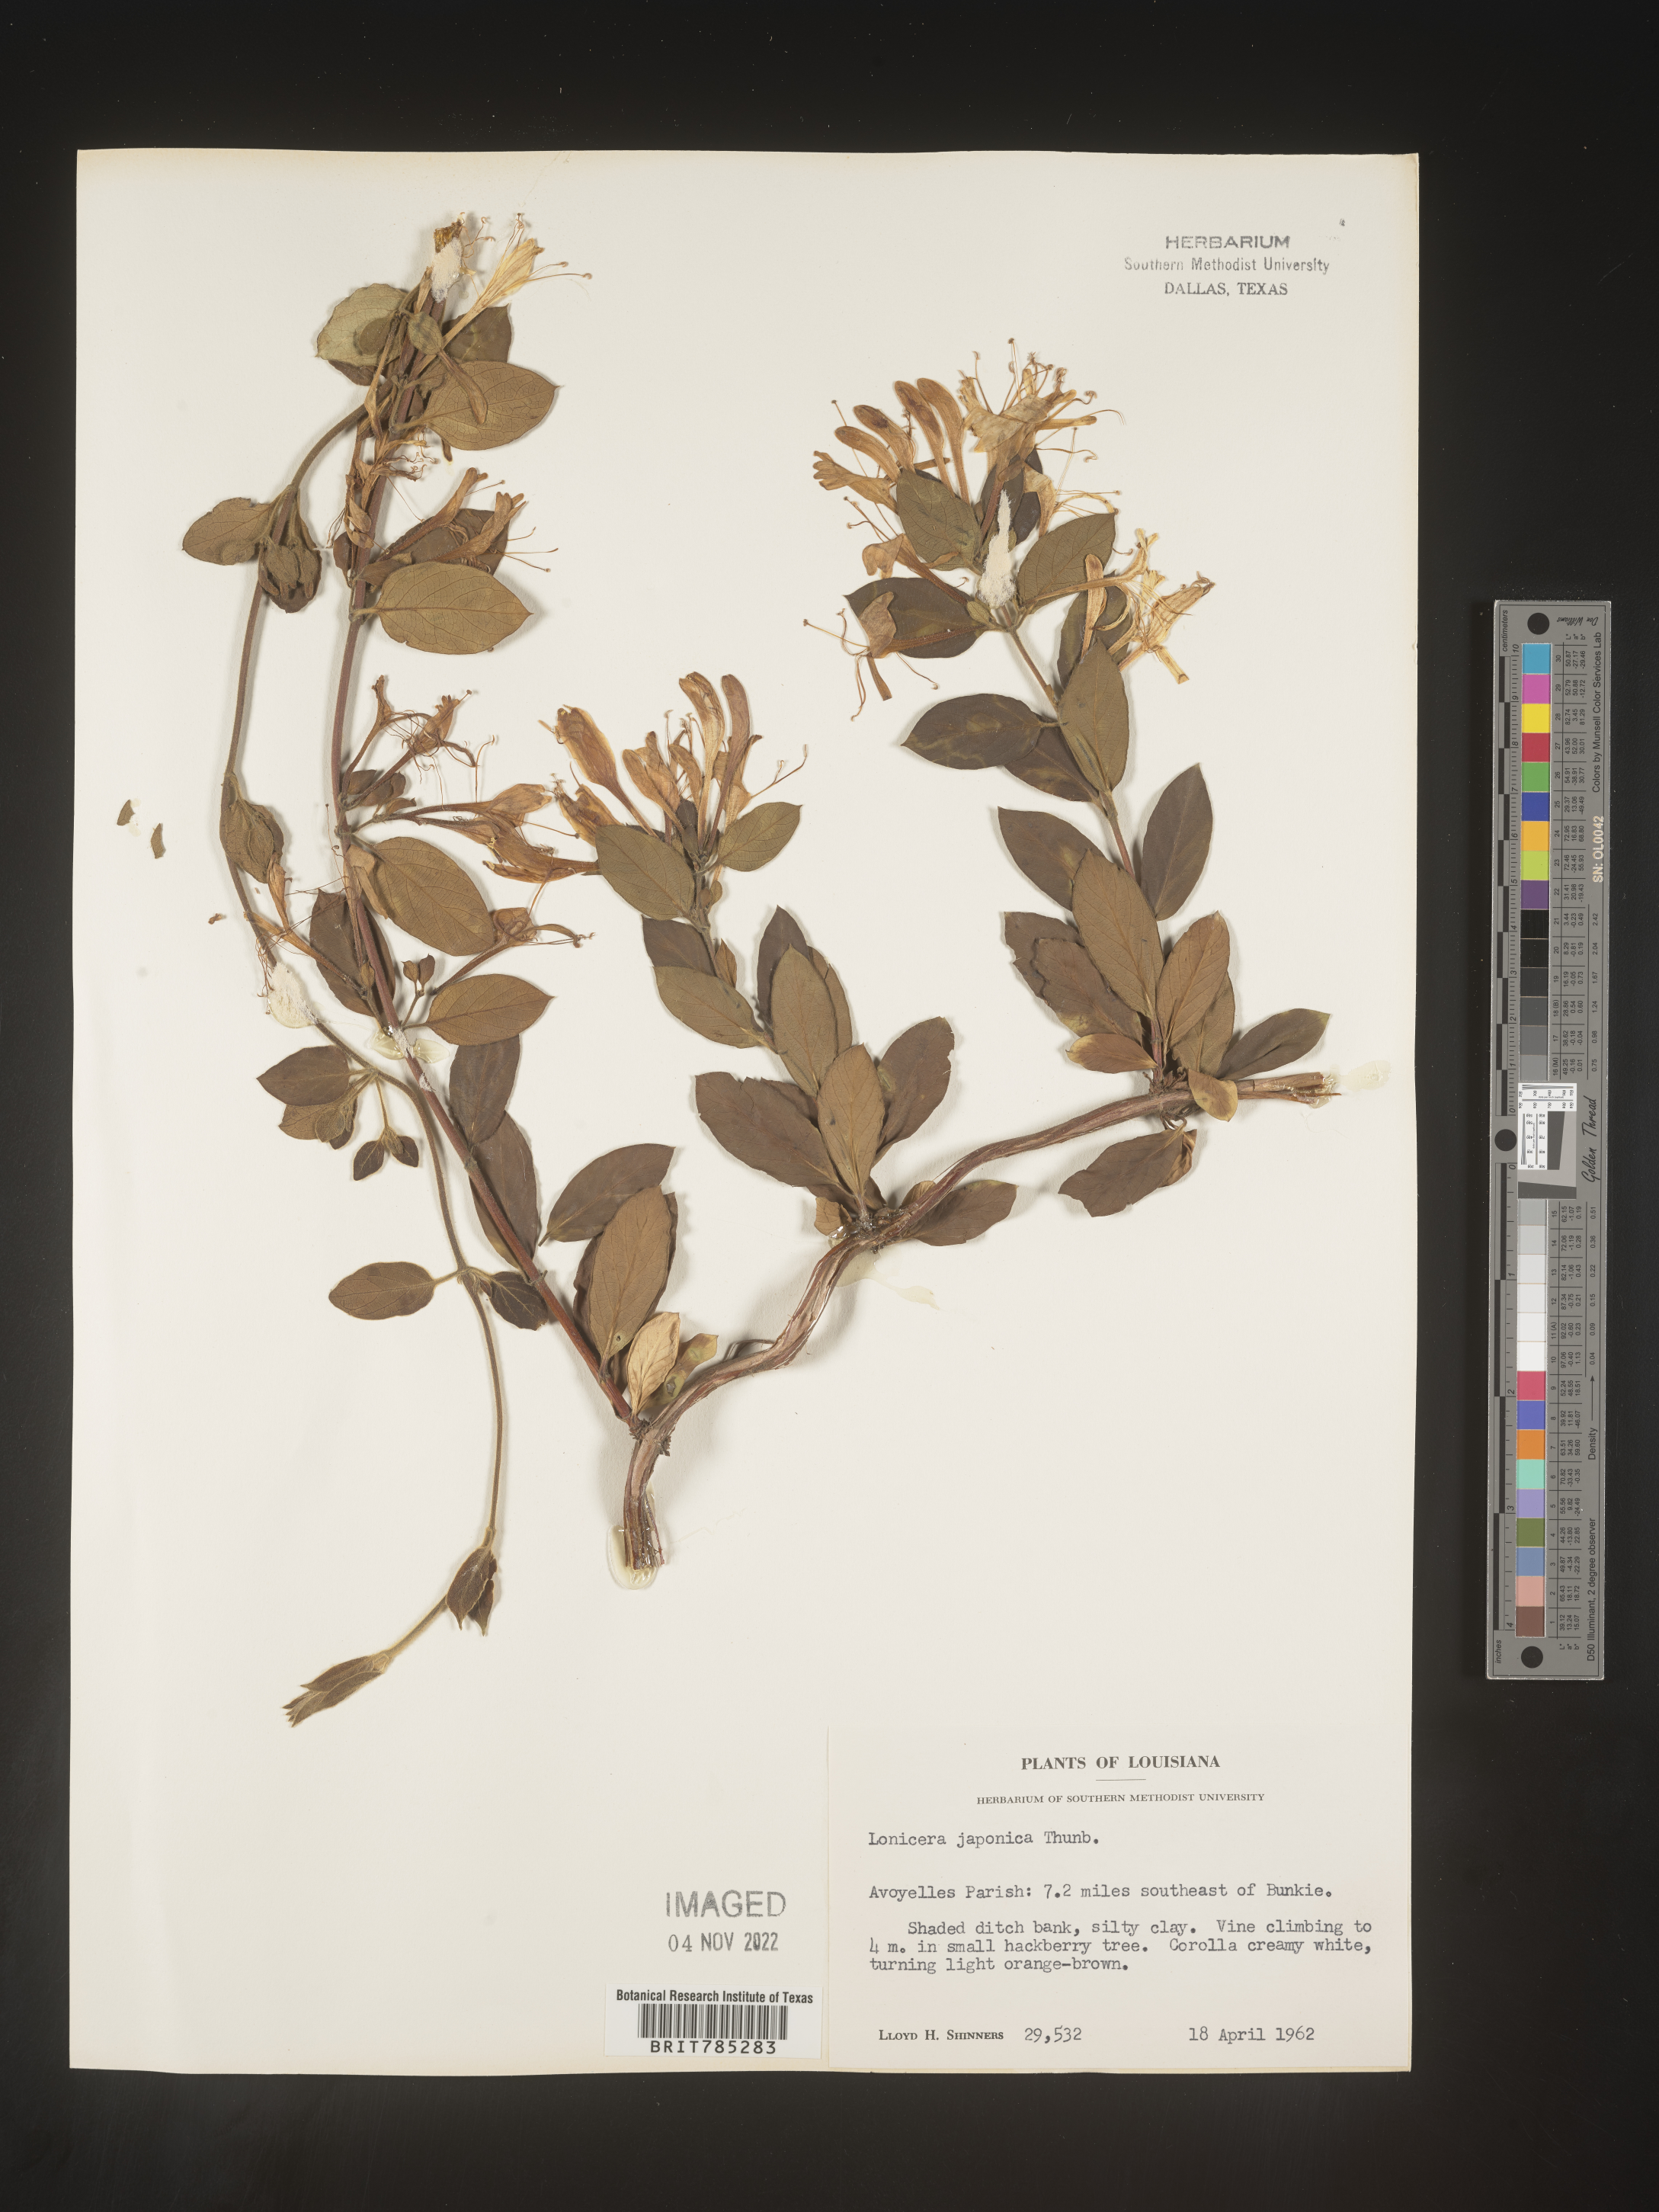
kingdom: Plantae
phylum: Tracheophyta
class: Magnoliopsida
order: Dipsacales
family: Caprifoliaceae
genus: Lonicera
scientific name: Lonicera japonica
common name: Japanese honeysuckle
